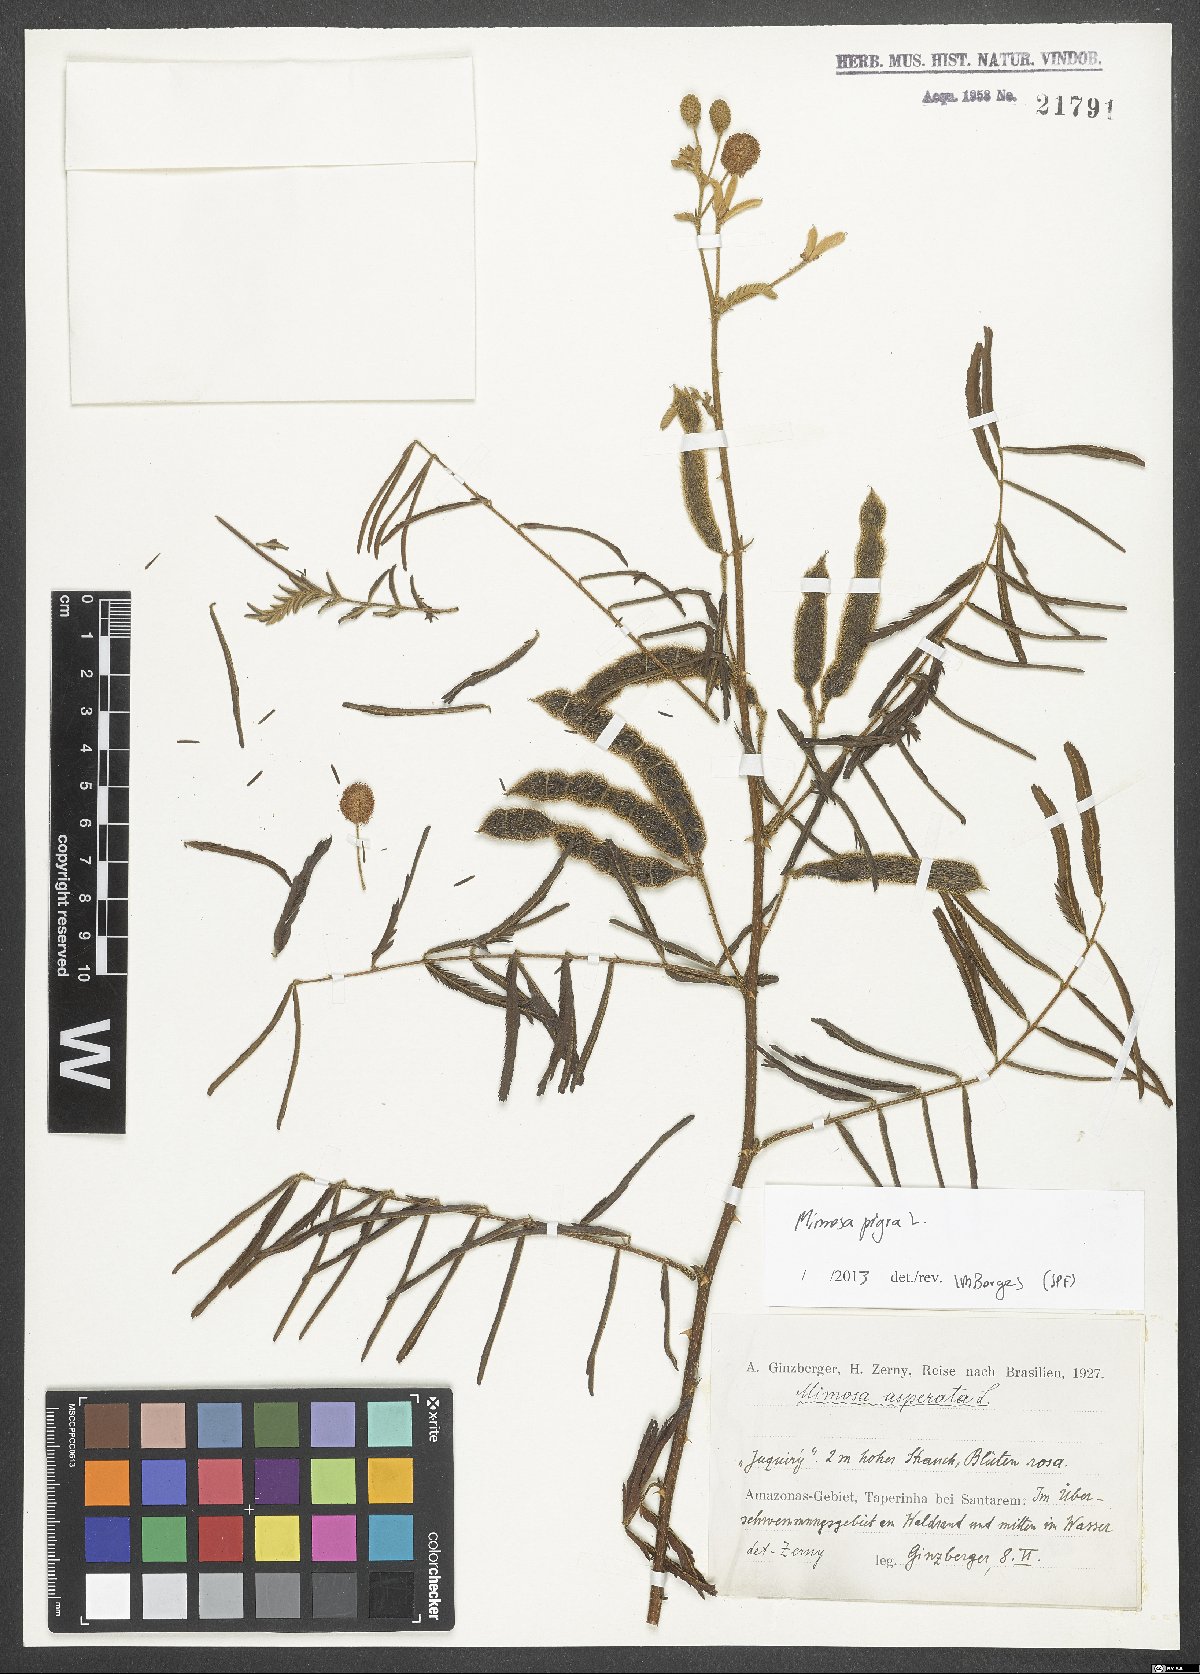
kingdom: Plantae
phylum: Tracheophyta
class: Magnoliopsida
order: Fabales
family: Fabaceae
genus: Mimosa
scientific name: Mimosa pigra
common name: Black mimosa
